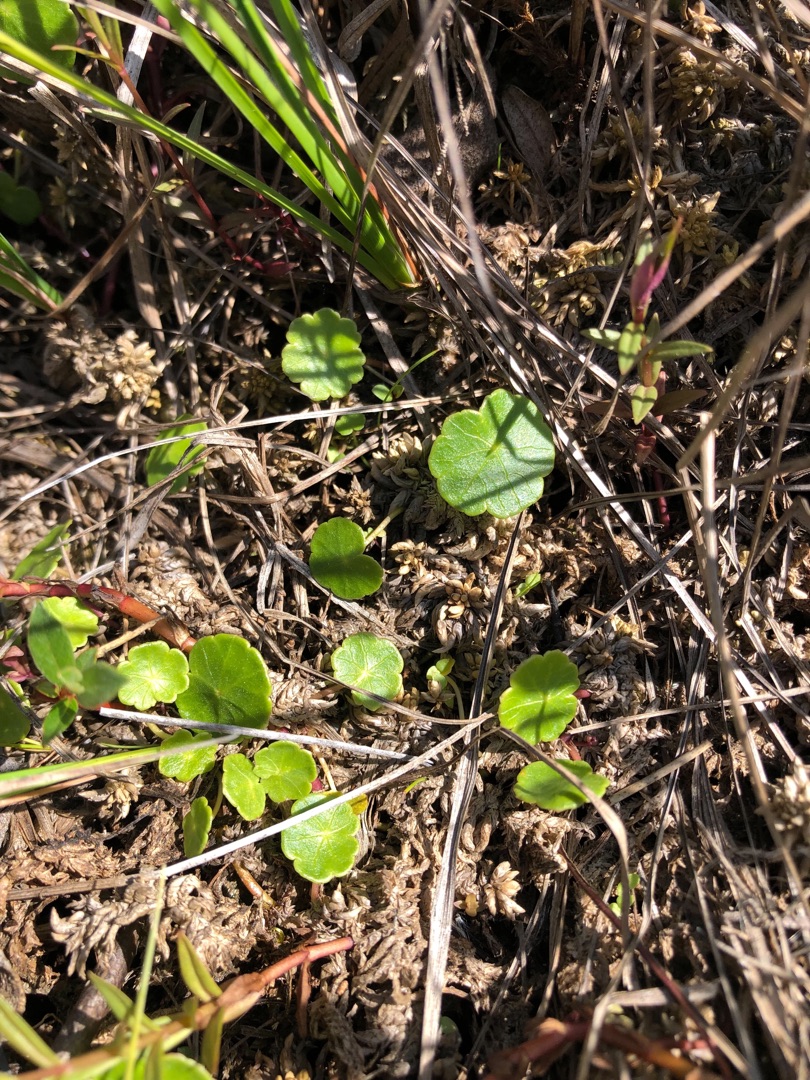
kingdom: Plantae
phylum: Tracheophyta
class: Magnoliopsida
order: Apiales
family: Araliaceae
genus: Hydrocotyle
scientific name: Hydrocotyle vulgaris
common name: Vandnavle
